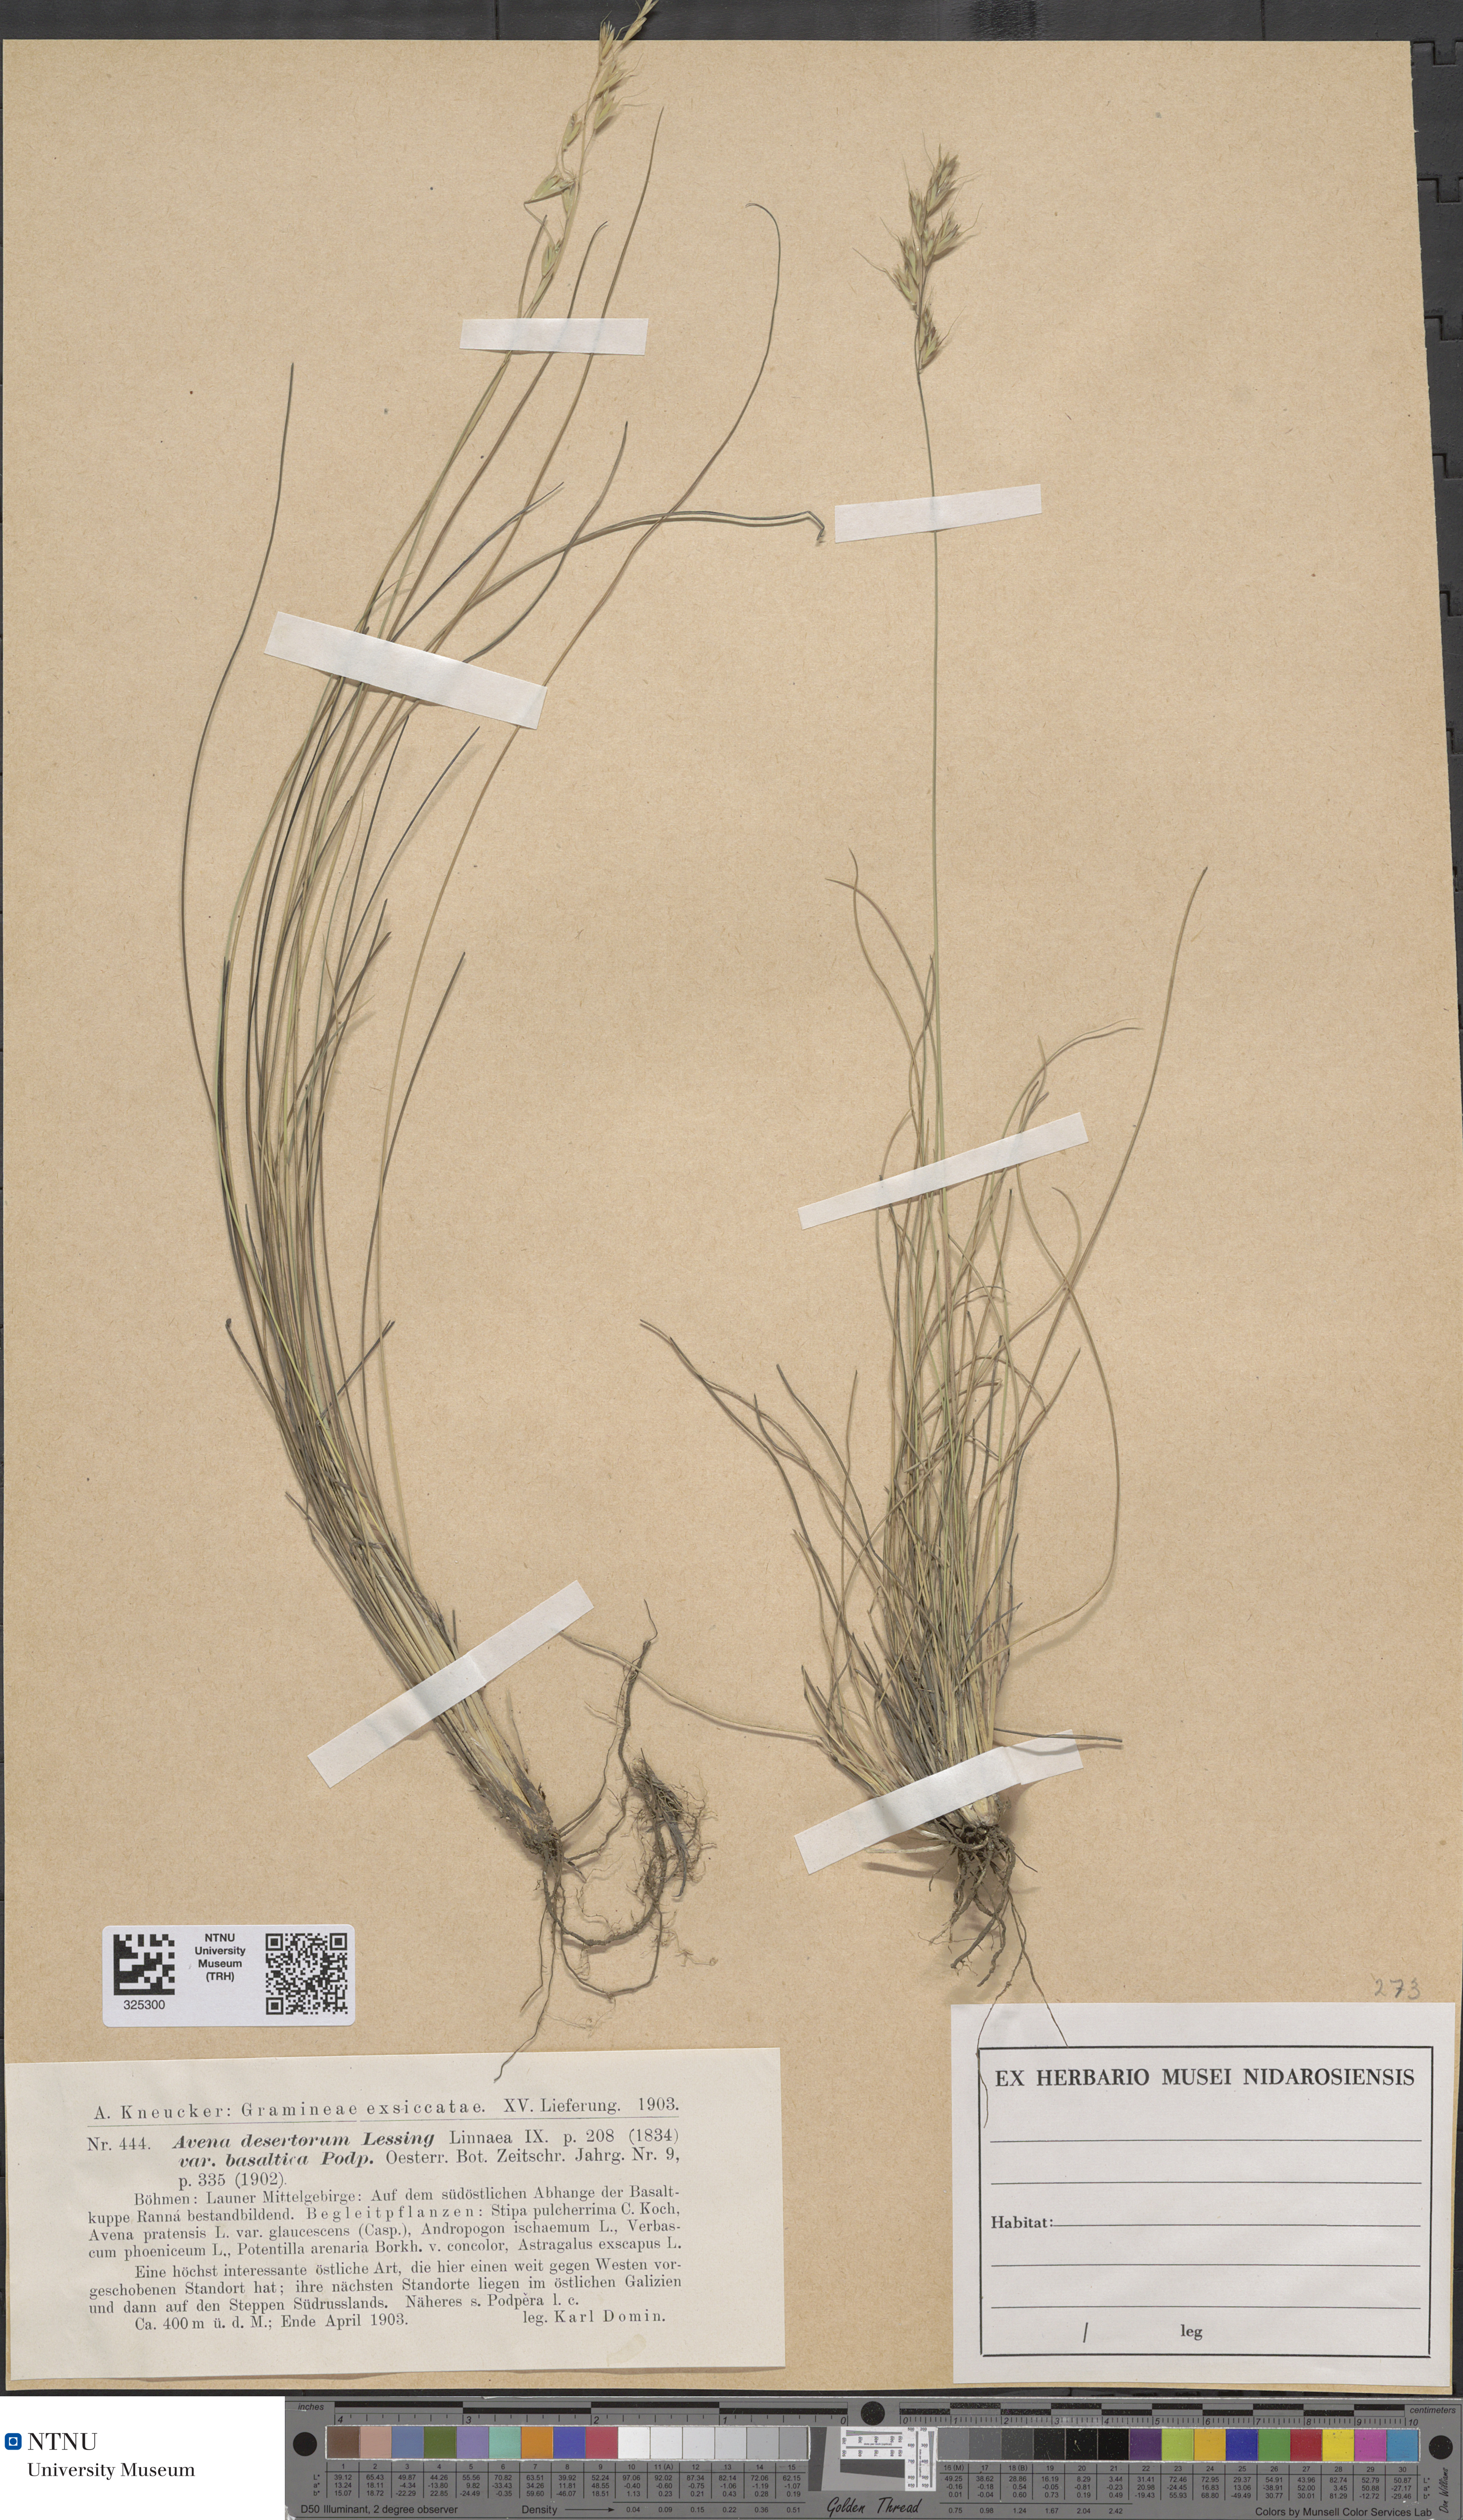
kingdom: Plantae
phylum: Tracheophyta
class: Liliopsida
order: Poales
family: Poaceae
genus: Helictotrichon
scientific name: Helictotrichon desertorum
